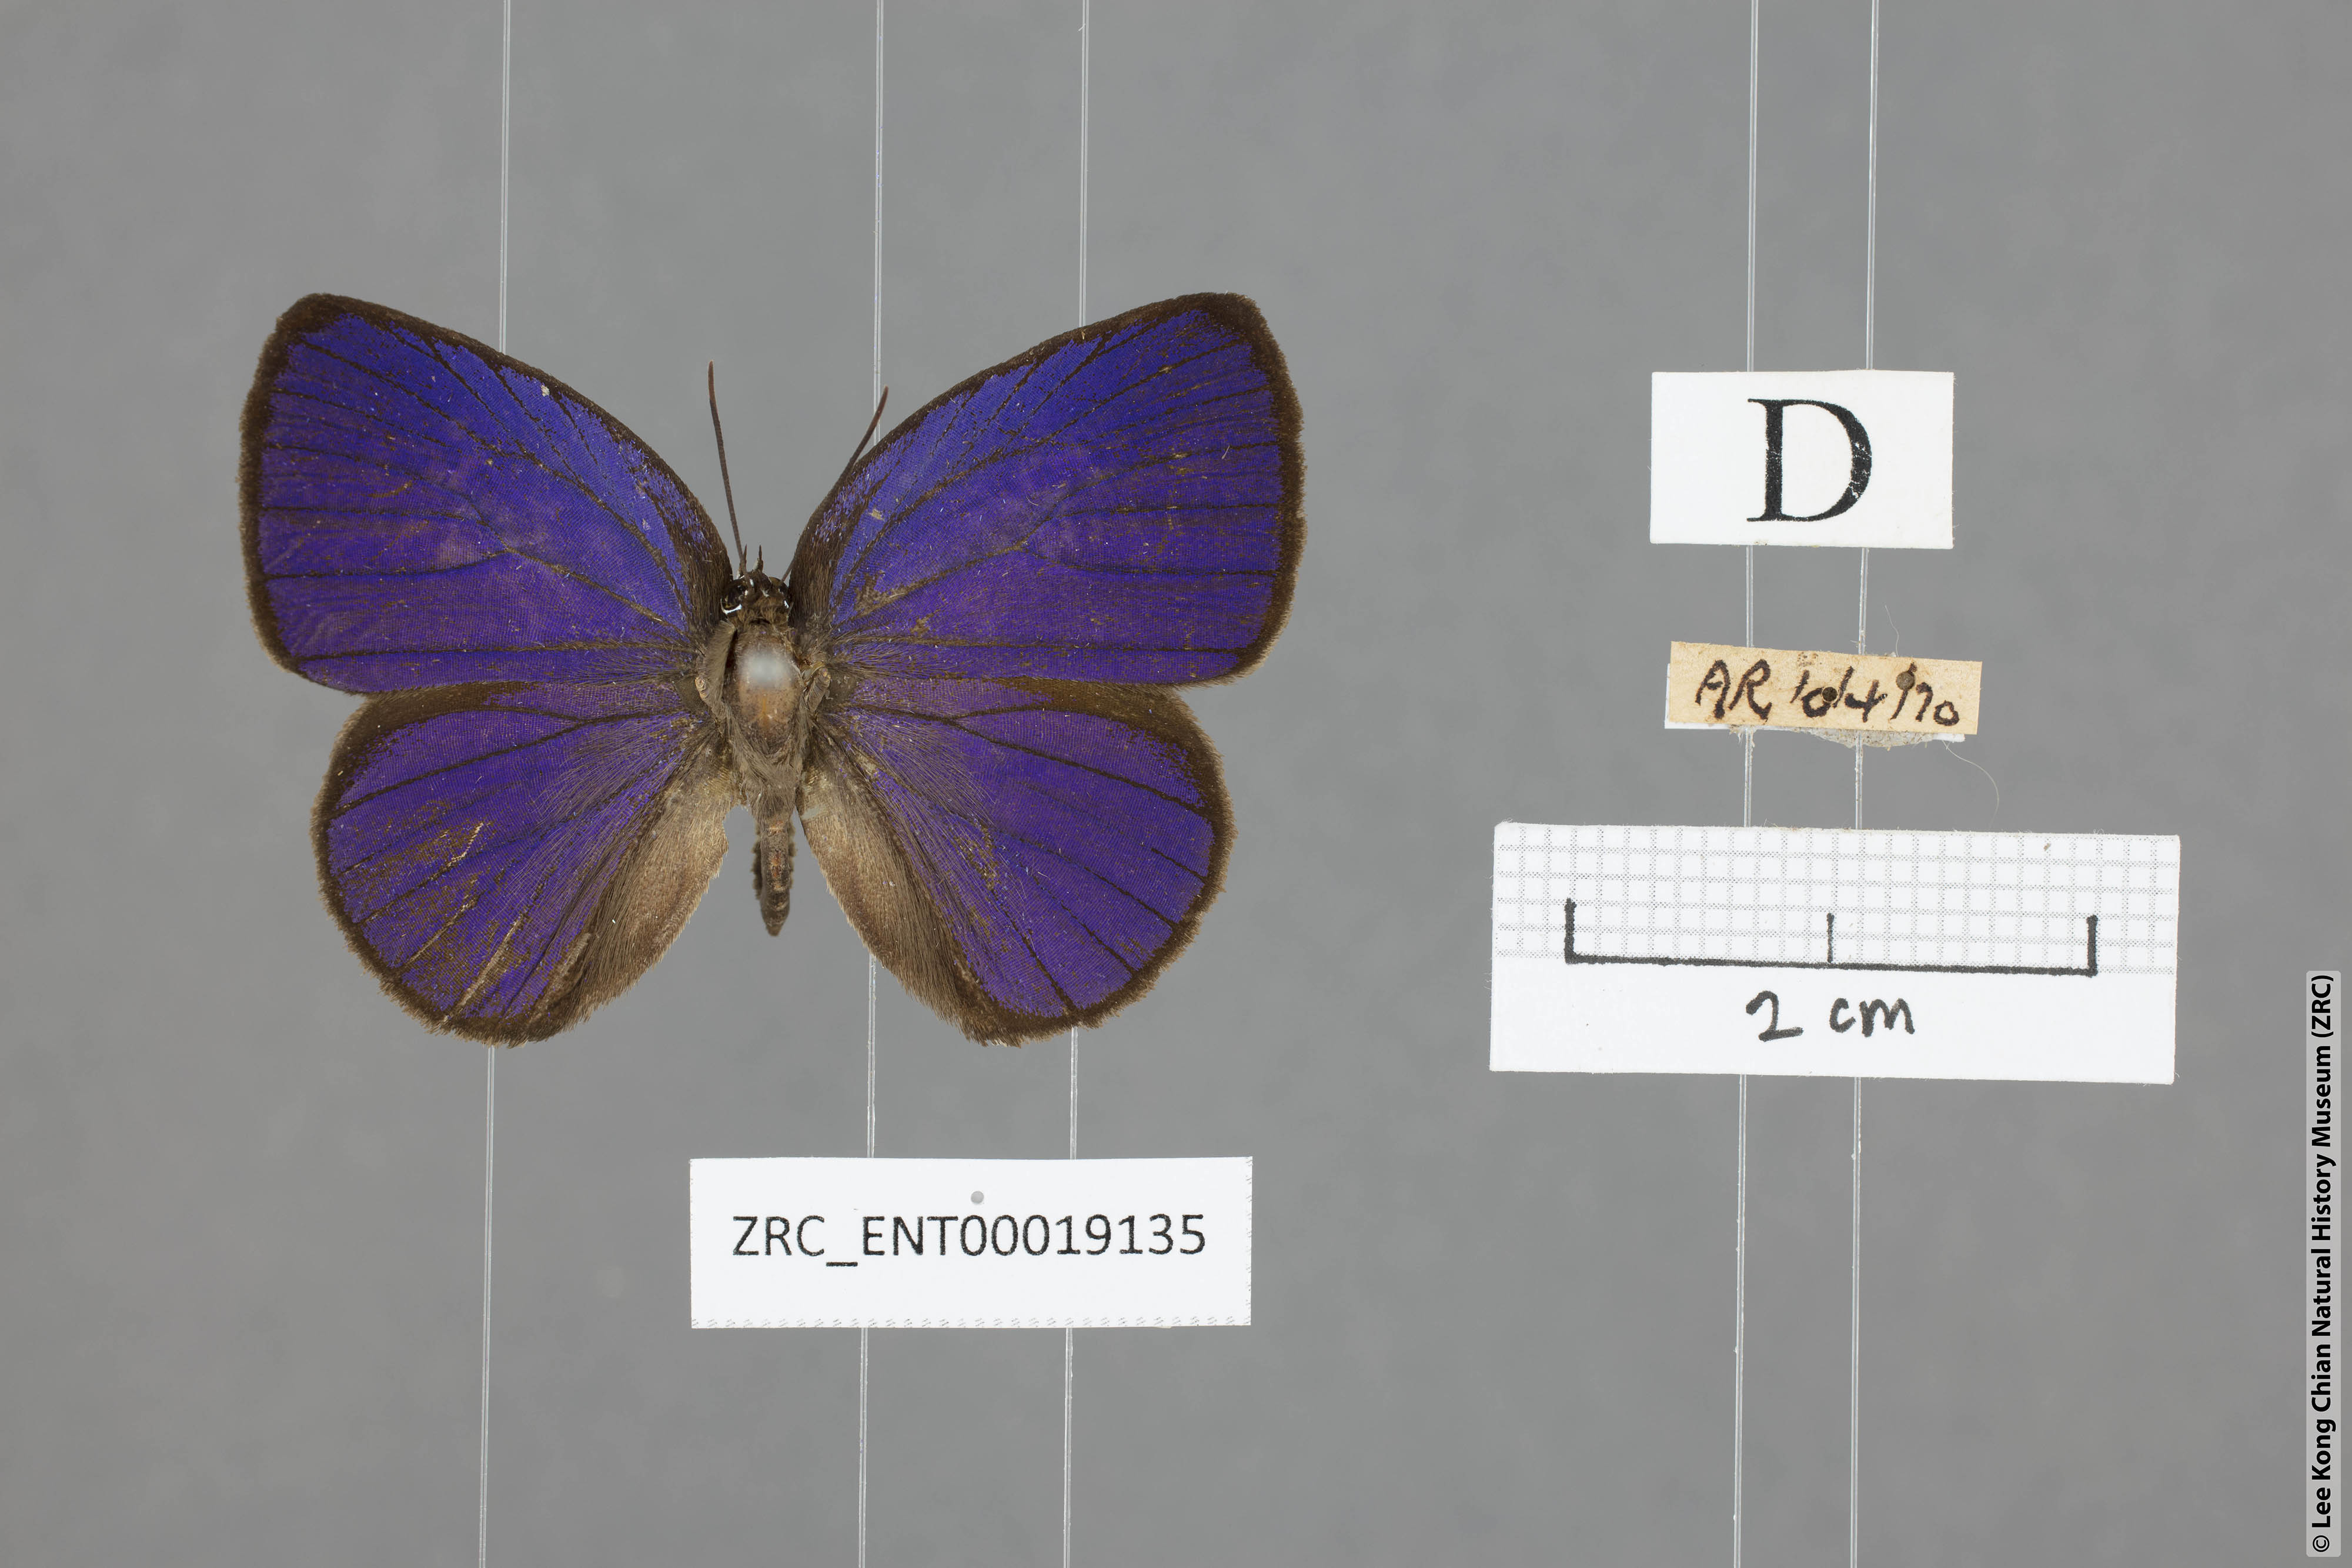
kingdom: Animalia
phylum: Arthropoda
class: Insecta
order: Lepidoptera
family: Lycaenidae
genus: Arhopala
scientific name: Arhopala amphimuta
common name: Broad yellow oakblue
